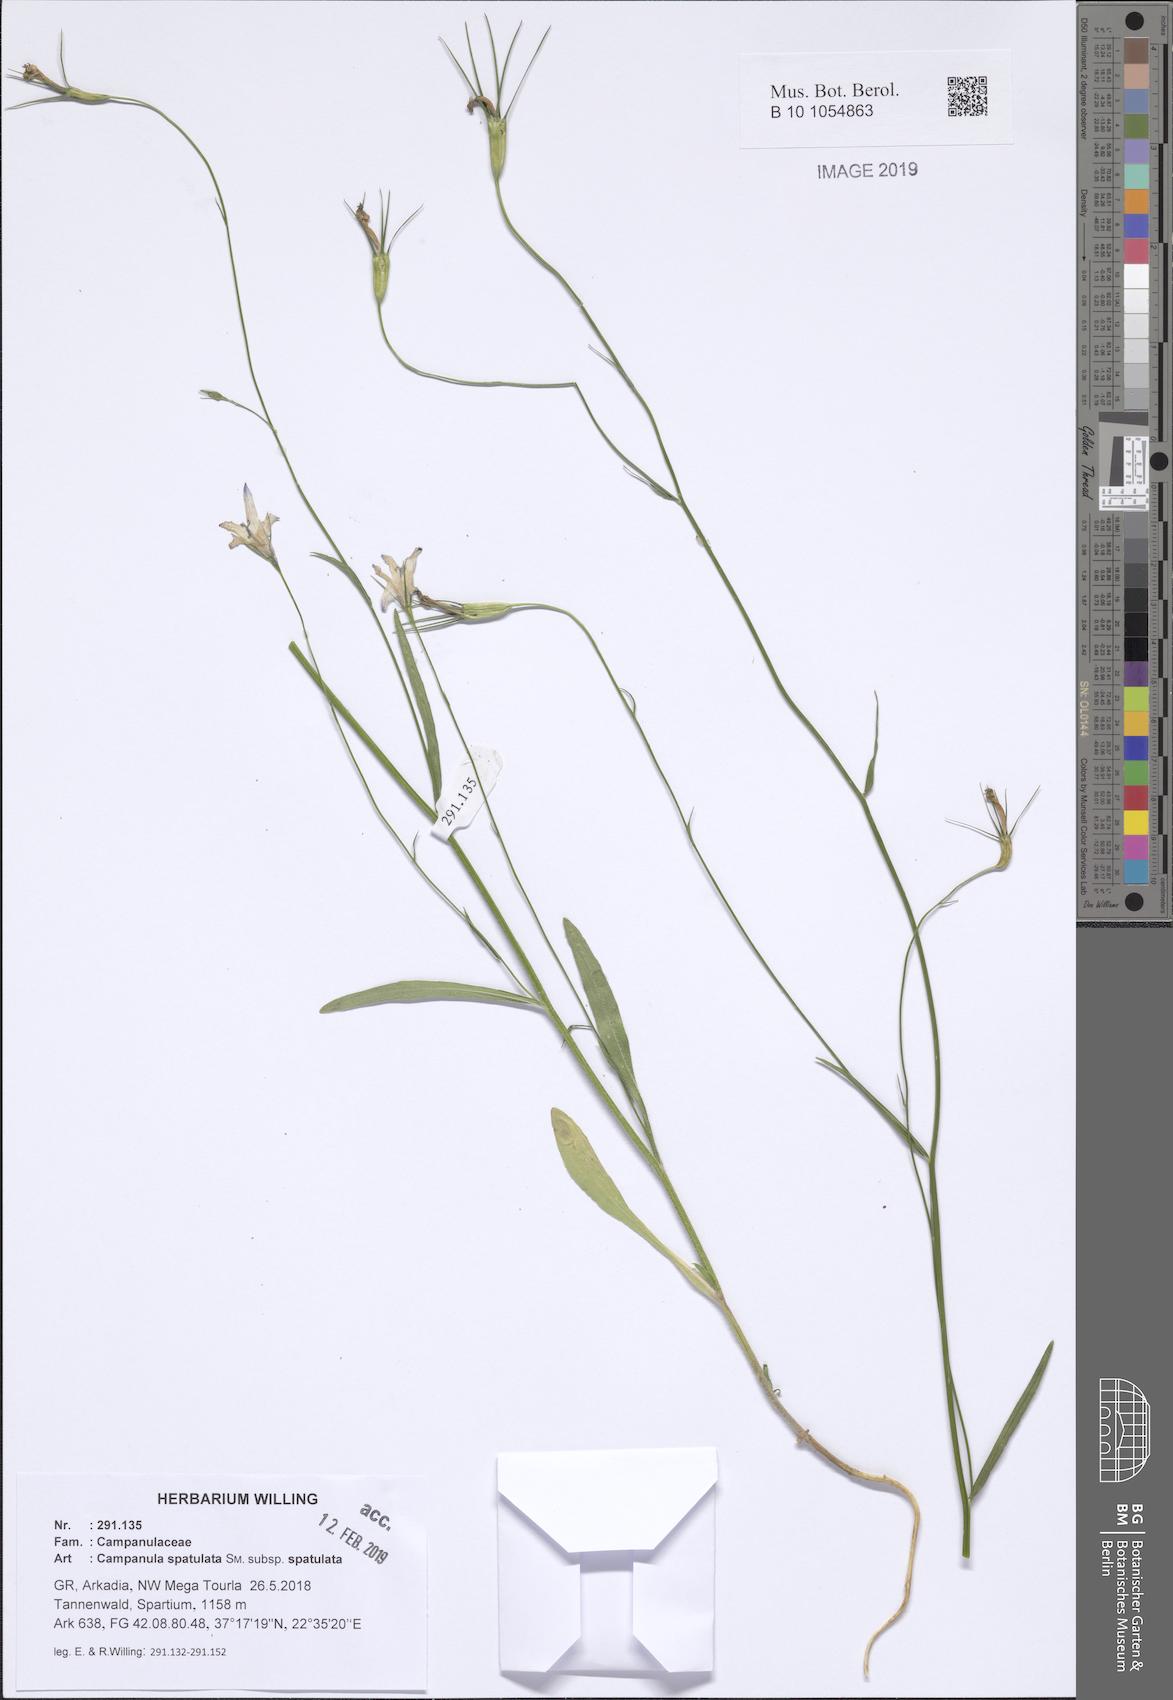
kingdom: Plantae
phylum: Tracheophyta
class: Magnoliopsida
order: Asterales
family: Campanulaceae
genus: Campanula
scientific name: Campanula spatulata
